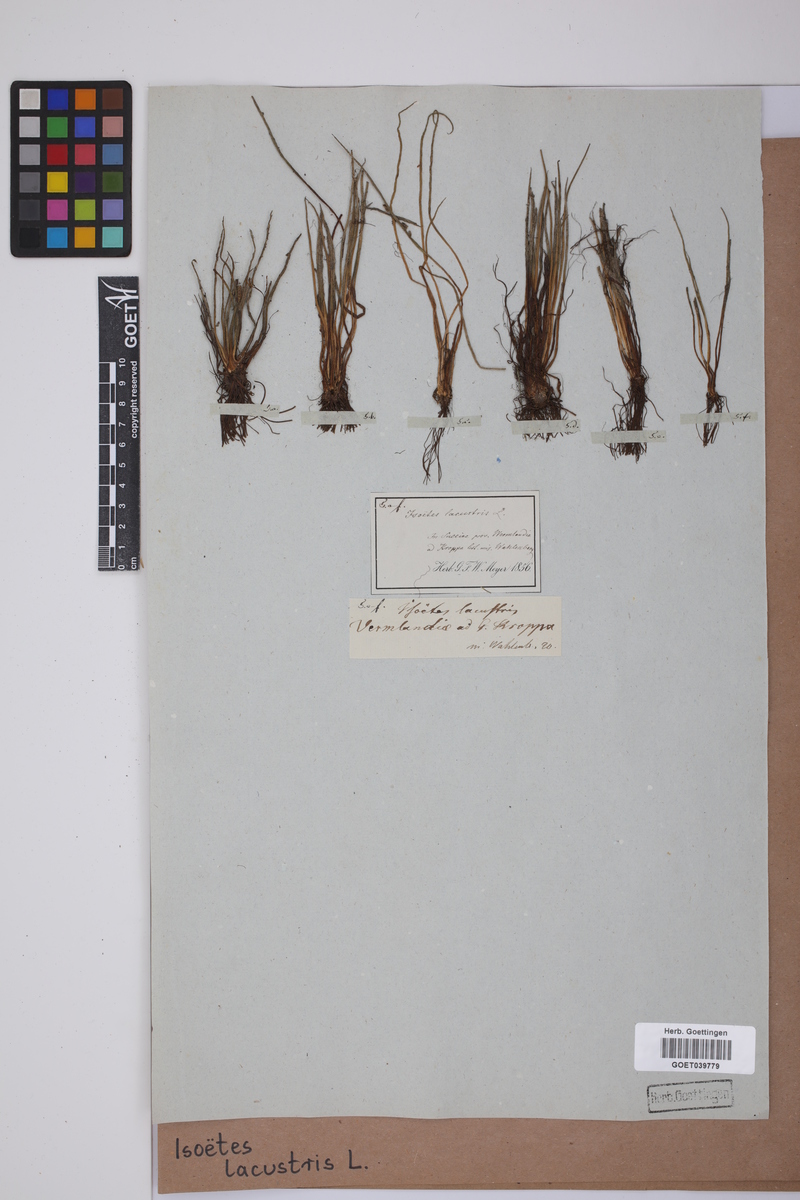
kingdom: Plantae
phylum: Tracheophyta
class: Lycopodiopsida
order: Isoetales
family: Isoetaceae
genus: Isoetes
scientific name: Isoetes lacustris
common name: Common quillwort
